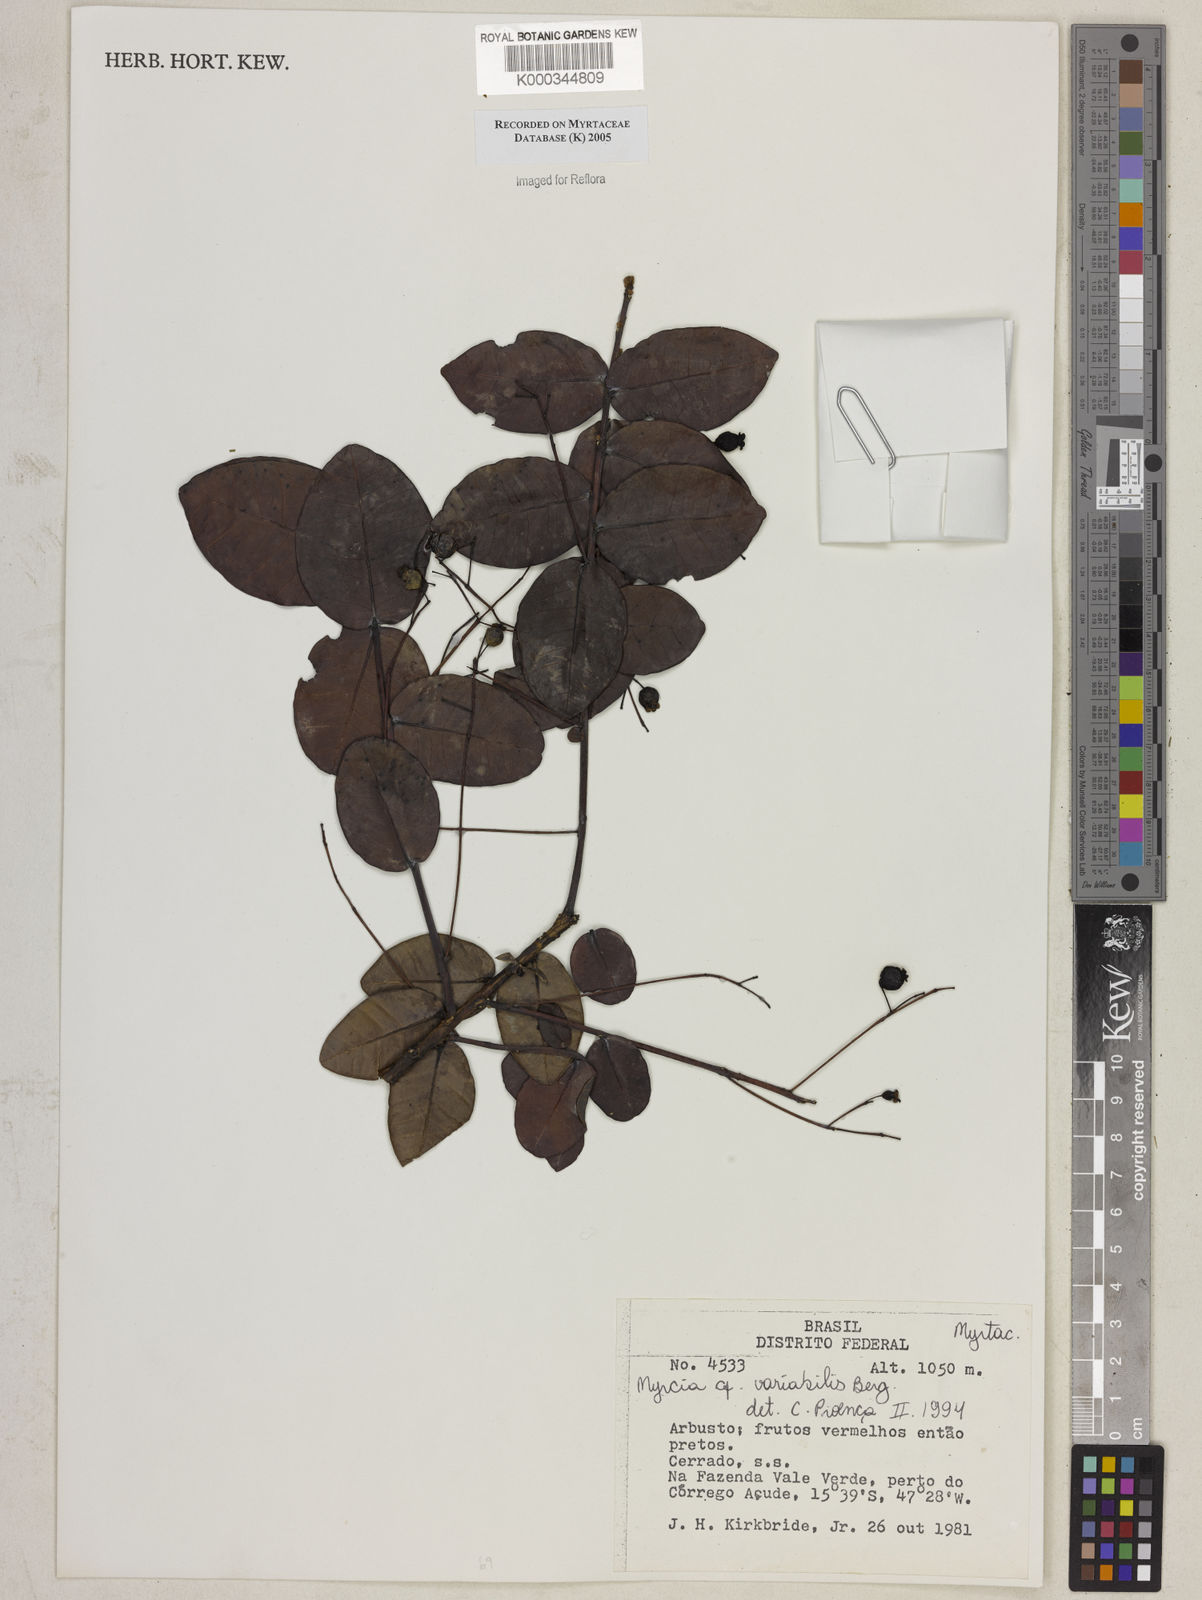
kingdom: Plantae
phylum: Tracheophyta
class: Magnoliopsida
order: Myrtales
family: Myrtaceae
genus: Myrcia
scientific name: Myrcia variabilis
